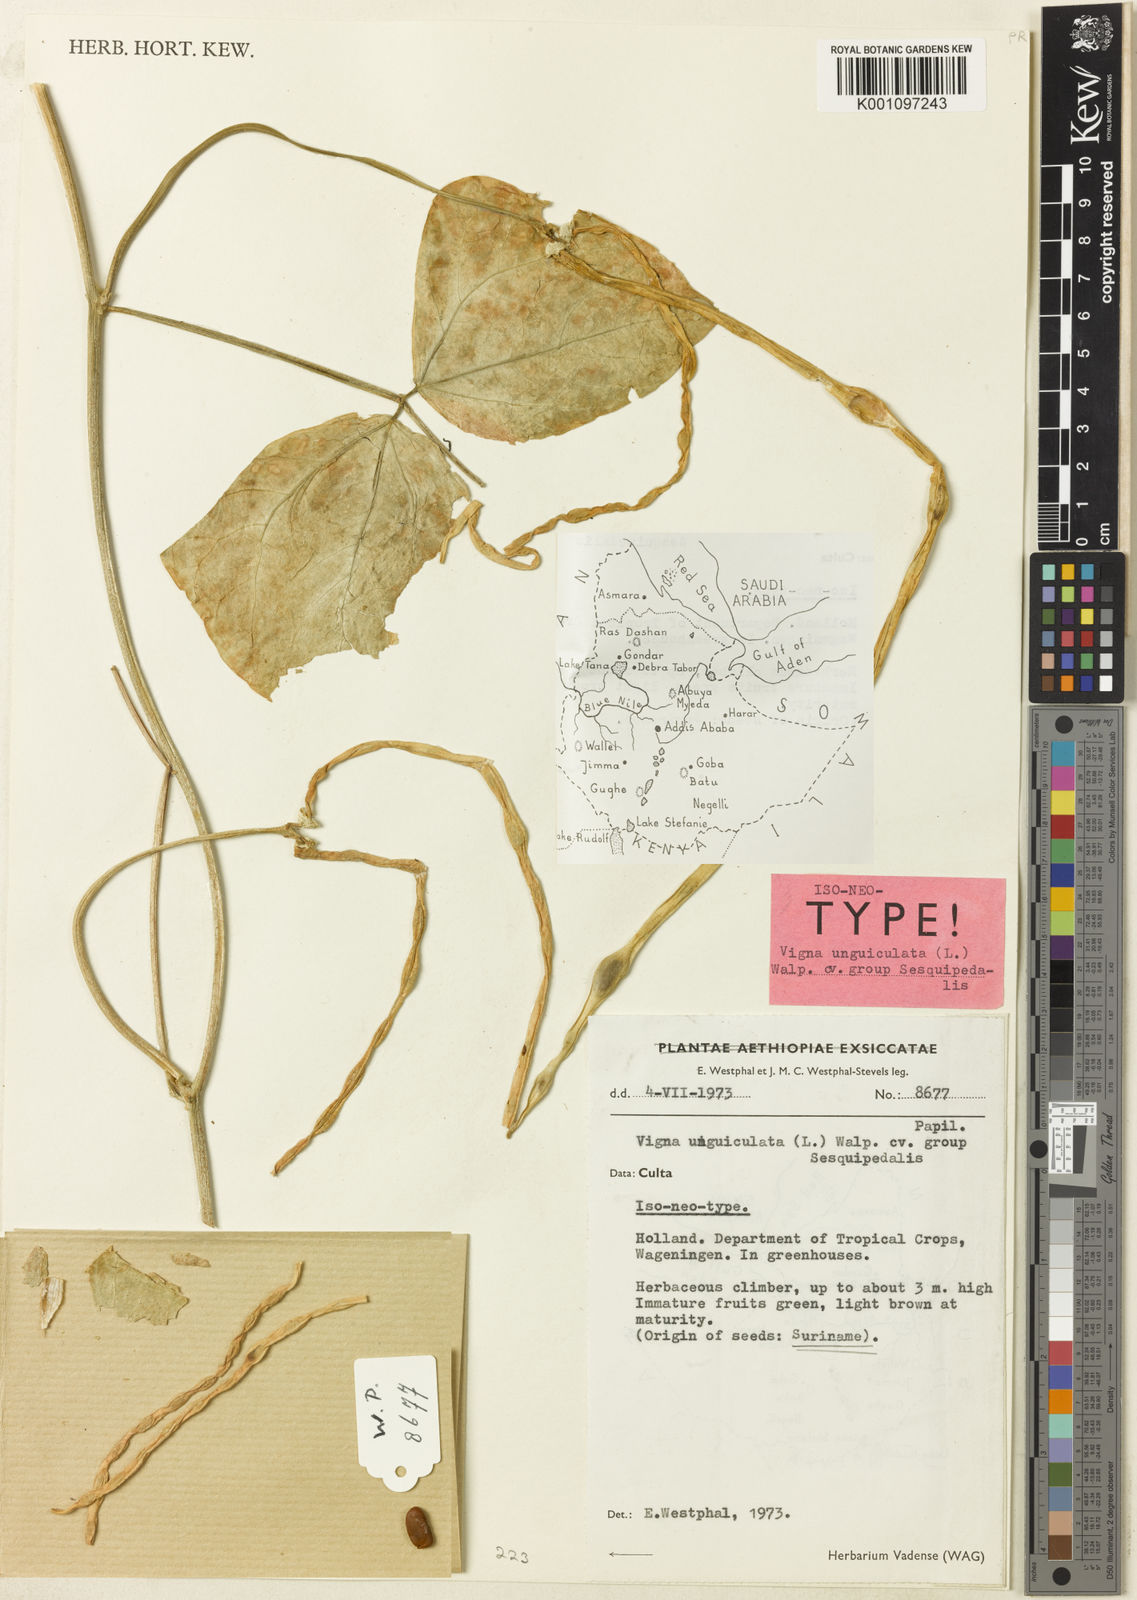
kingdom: Plantae
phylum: Tracheophyta
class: Magnoliopsida
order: Fabales
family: Fabaceae
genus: Vigna
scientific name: Vigna unguiculata
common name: Cowpea
